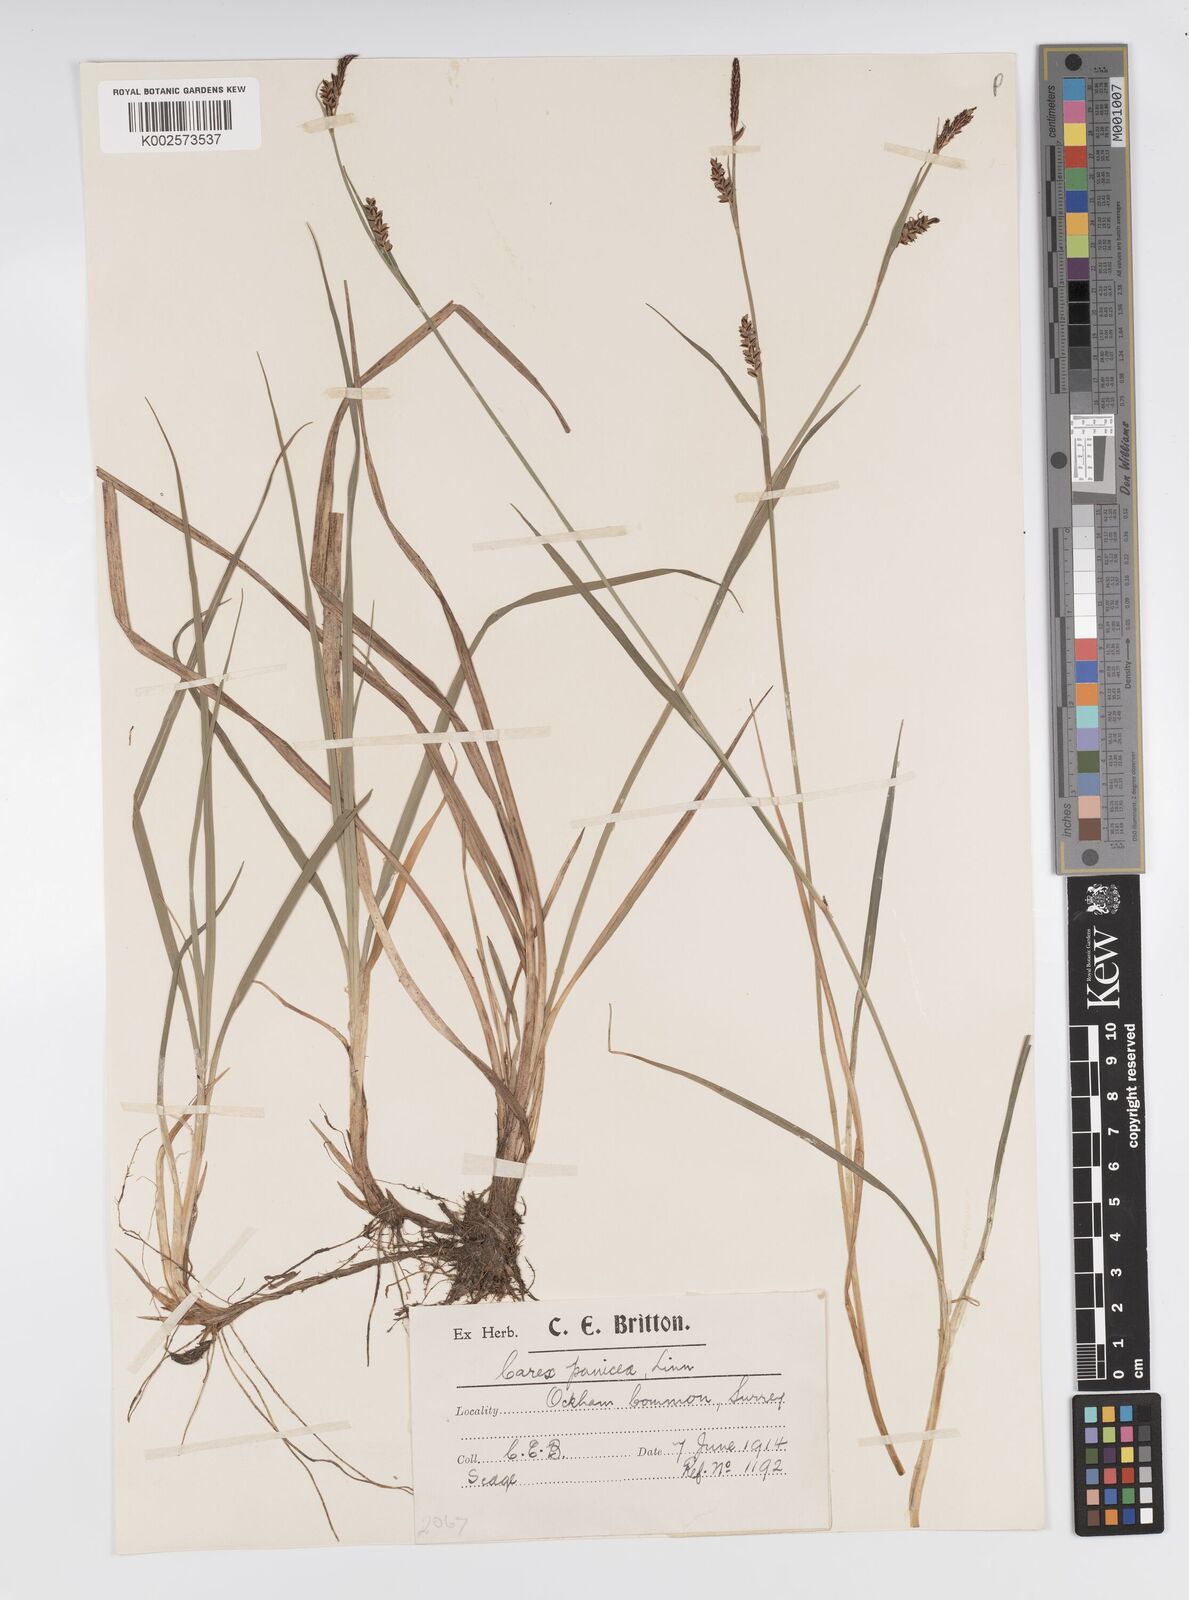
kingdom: Plantae
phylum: Tracheophyta
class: Liliopsida
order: Poales
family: Cyperaceae
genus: Carex
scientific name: Carex panicea
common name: Carnation sedge
